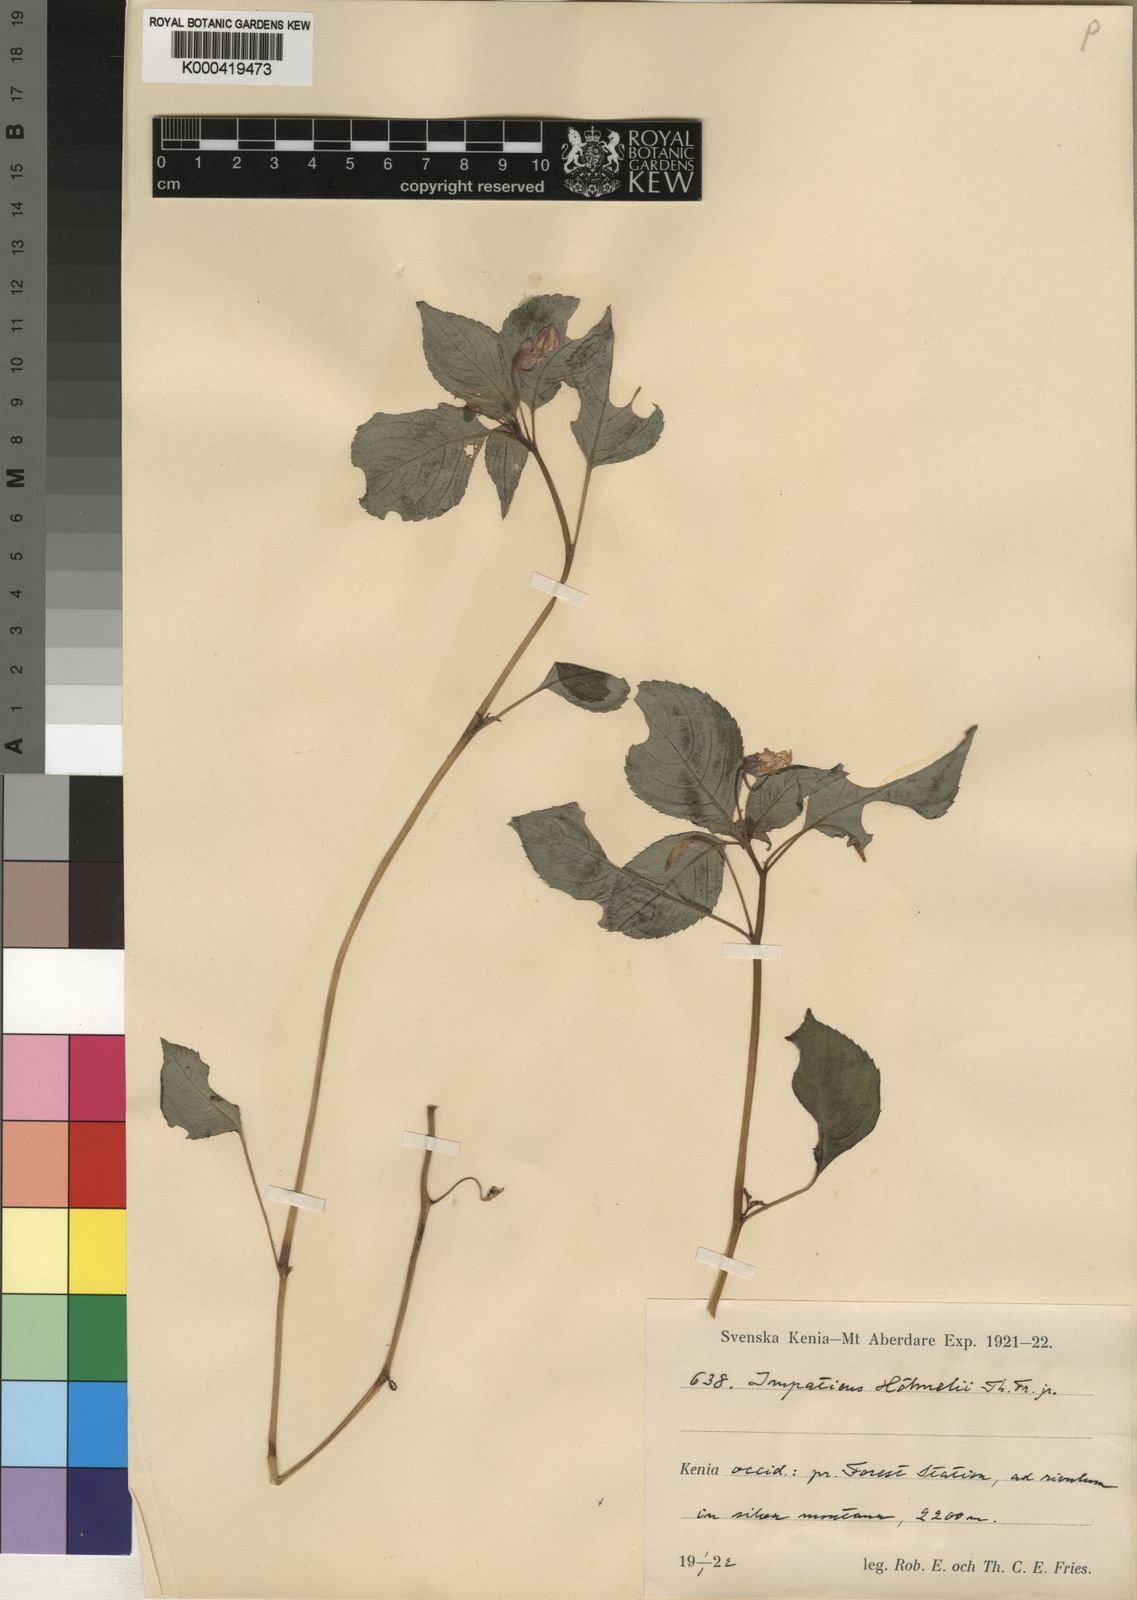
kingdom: Plantae
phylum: Tracheophyta
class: Magnoliopsida
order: Ericales
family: Balsaminaceae
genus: Impatiens
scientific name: Impatiens hoehnelii
